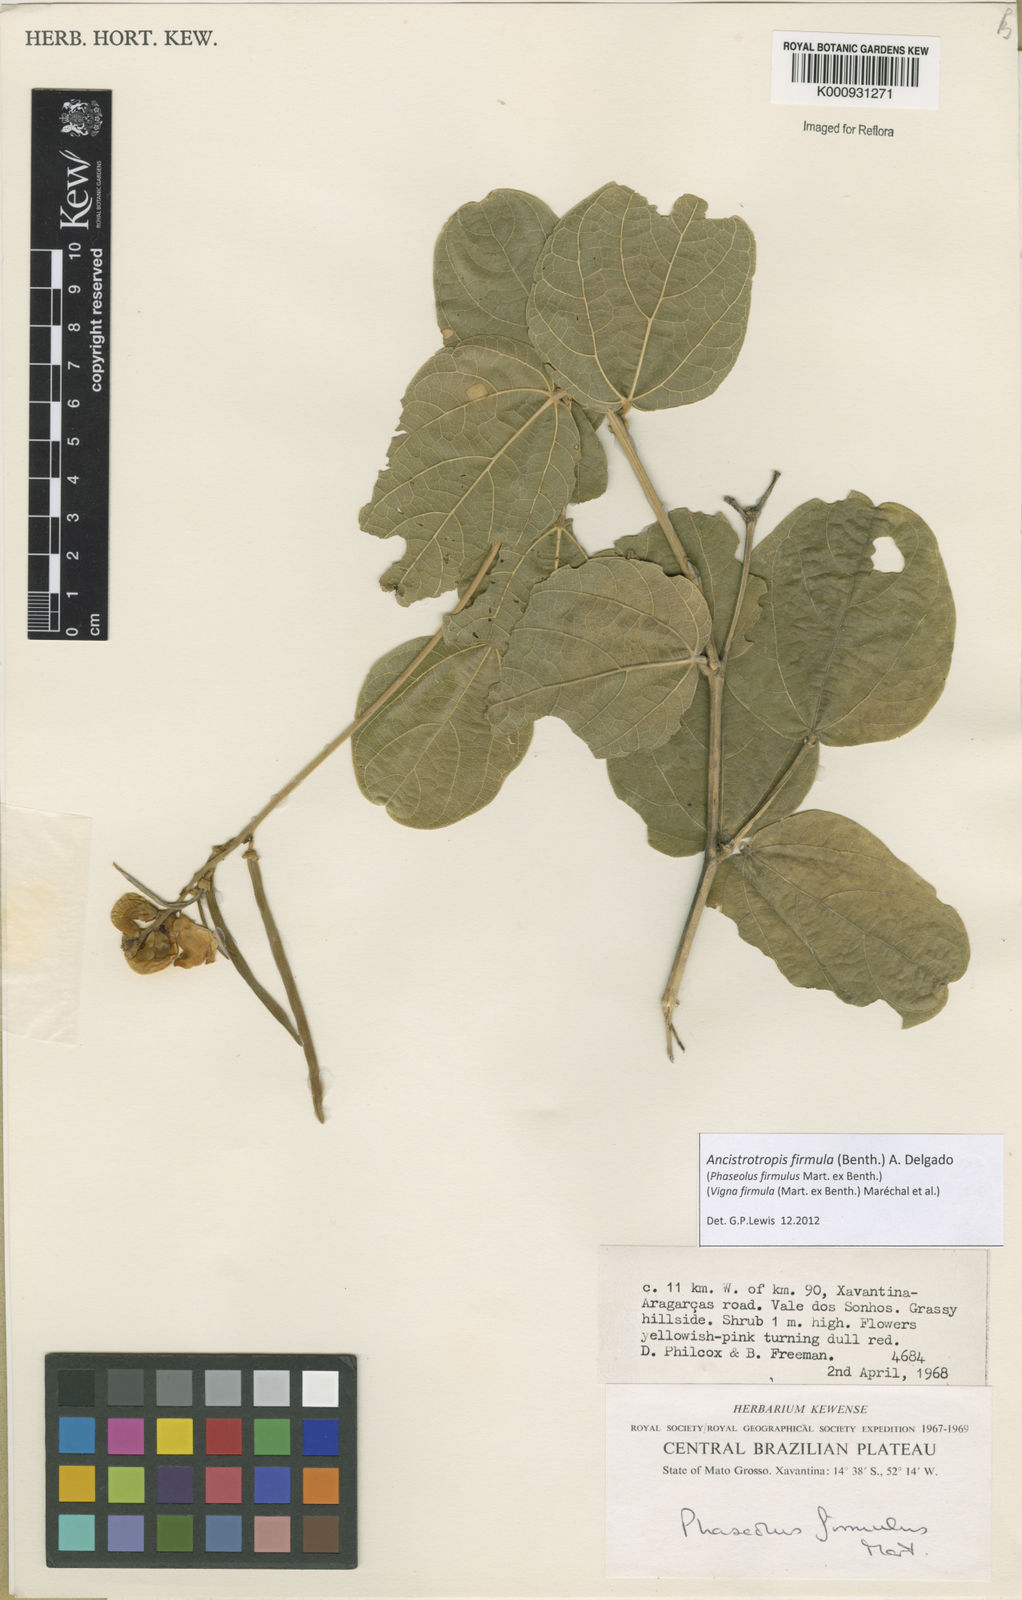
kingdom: Plantae
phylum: Tracheophyta
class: Magnoliopsida
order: Fabales
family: Fabaceae
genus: Ancistrotropis
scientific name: Ancistrotropis firmula
